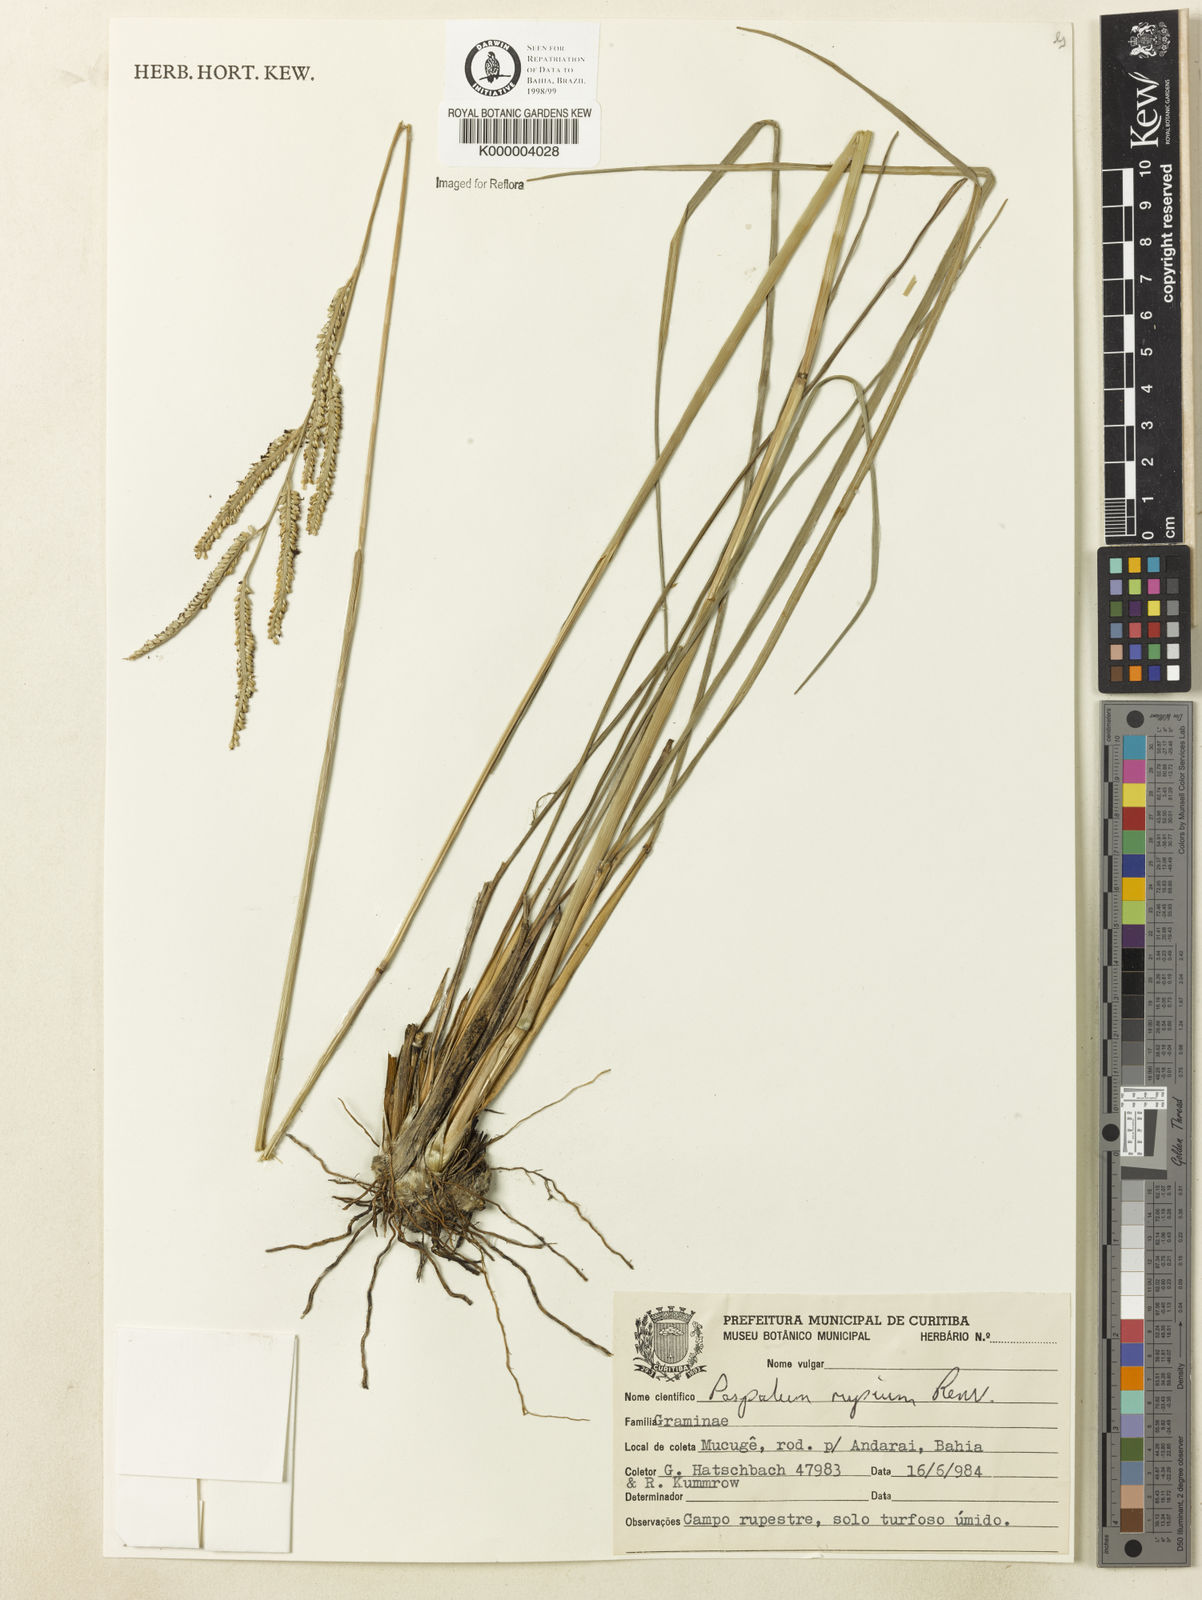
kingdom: Plantae
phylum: Tracheophyta
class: Liliopsida
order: Poales
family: Poaceae
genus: Paspalum
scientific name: Paspalum rupium
